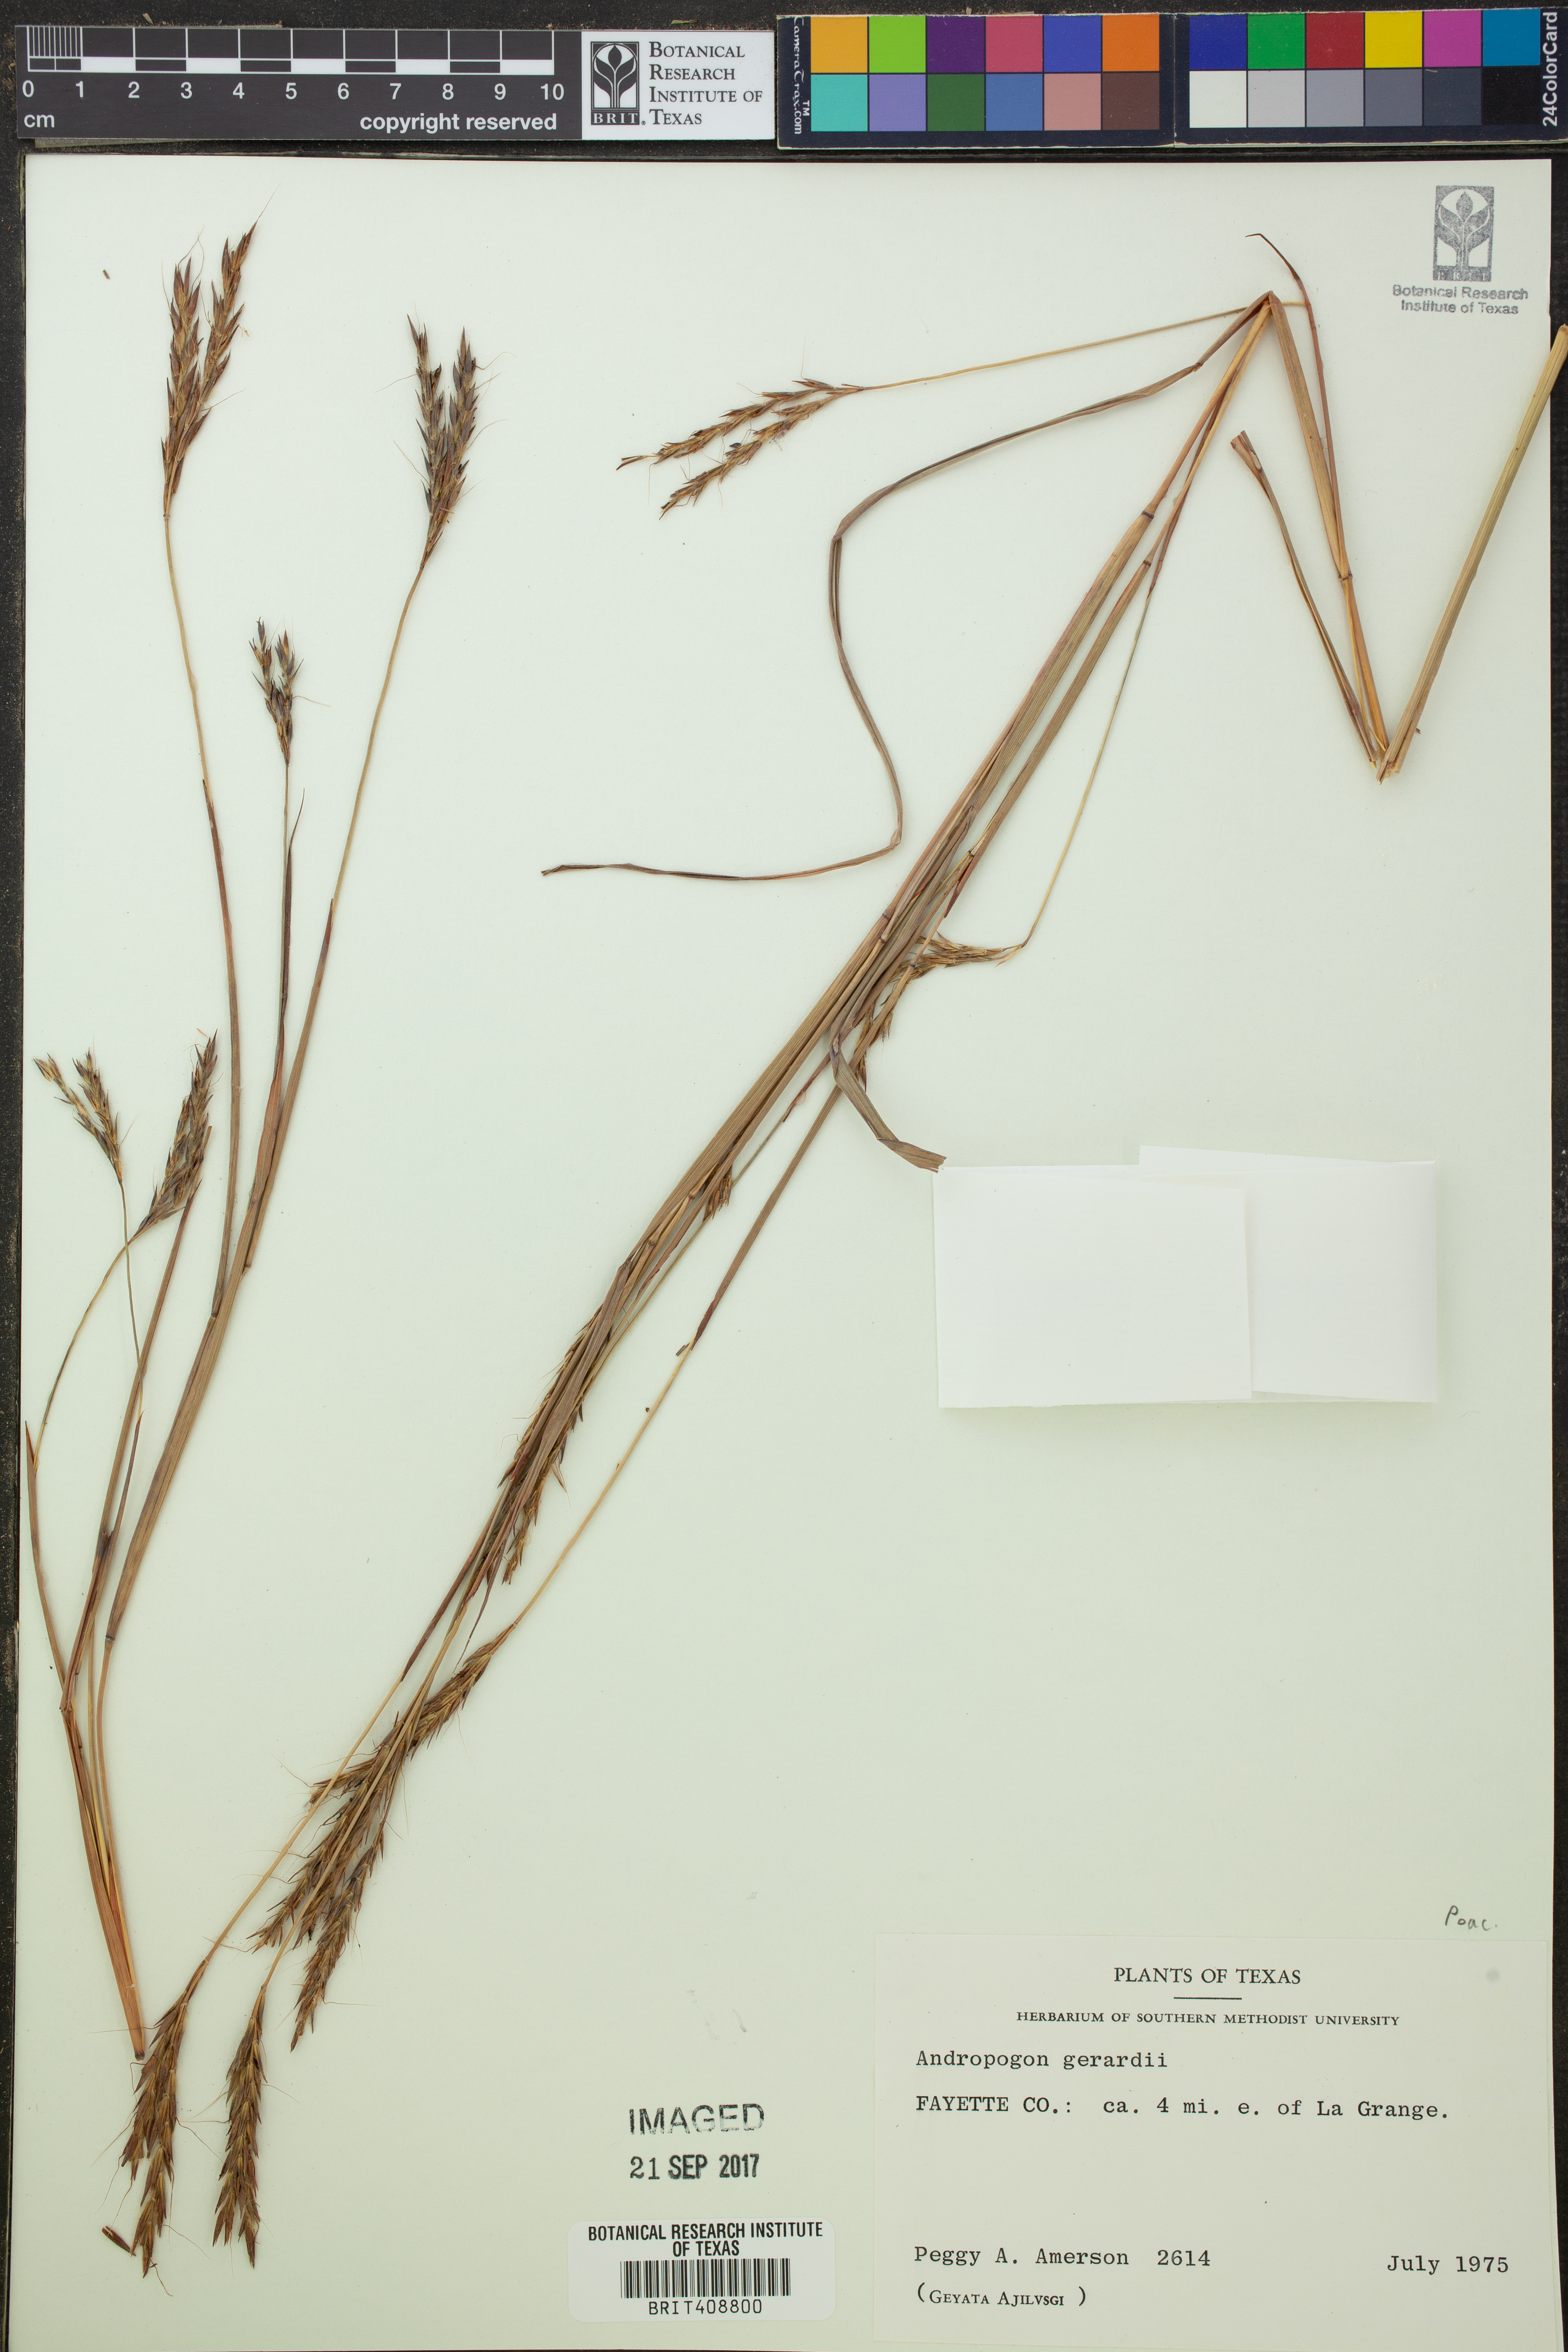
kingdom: Plantae
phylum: Tracheophyta
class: Liliopsida
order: Poales
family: Poaceae
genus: Andropogon
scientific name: Andropogon gerardi
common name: Big bluestem
